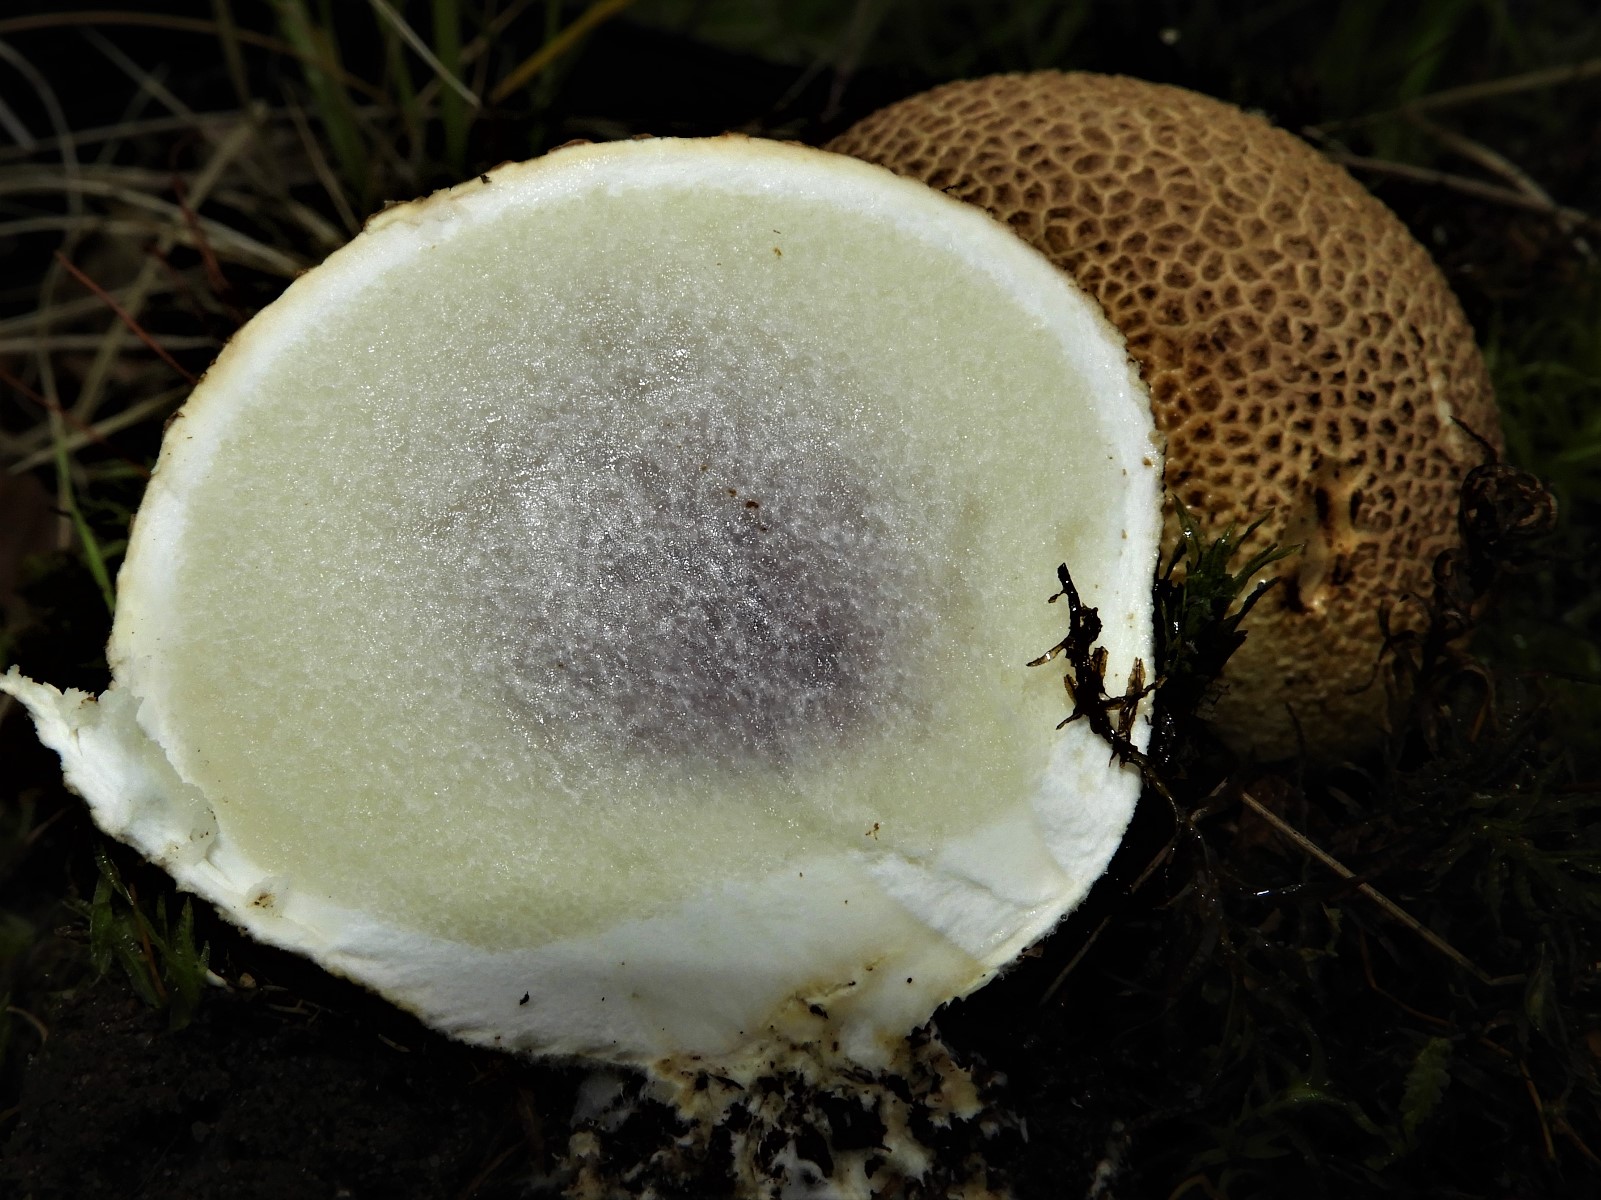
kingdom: Fungi
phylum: Basidiomycota
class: Agaricomycetes
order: Boletales
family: Sclerodermataceae
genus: Scleroderma
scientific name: Scleroderma citrinum
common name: almindelig bruskbold
